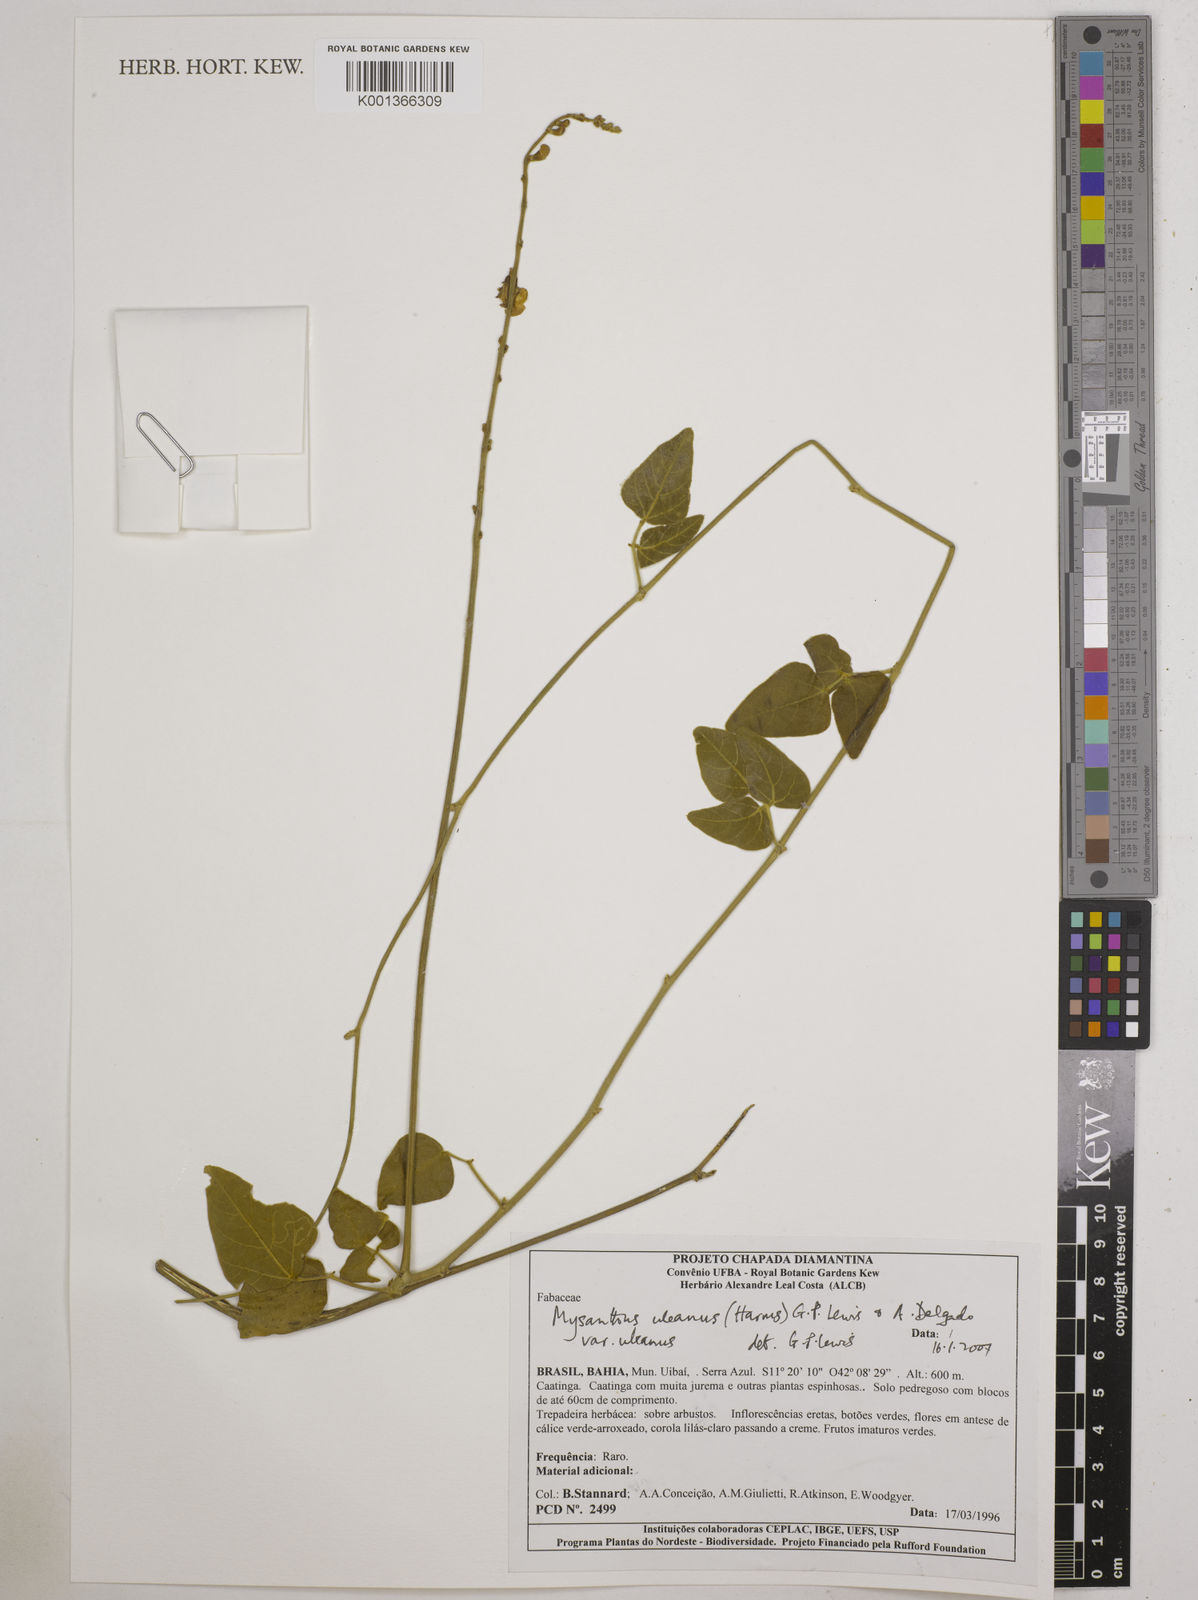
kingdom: Plantae
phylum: Tracheophyta
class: Magnoliopsida
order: Fabales
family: Fabaceae
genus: Mysanthus
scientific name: Mysanthus uleanus
